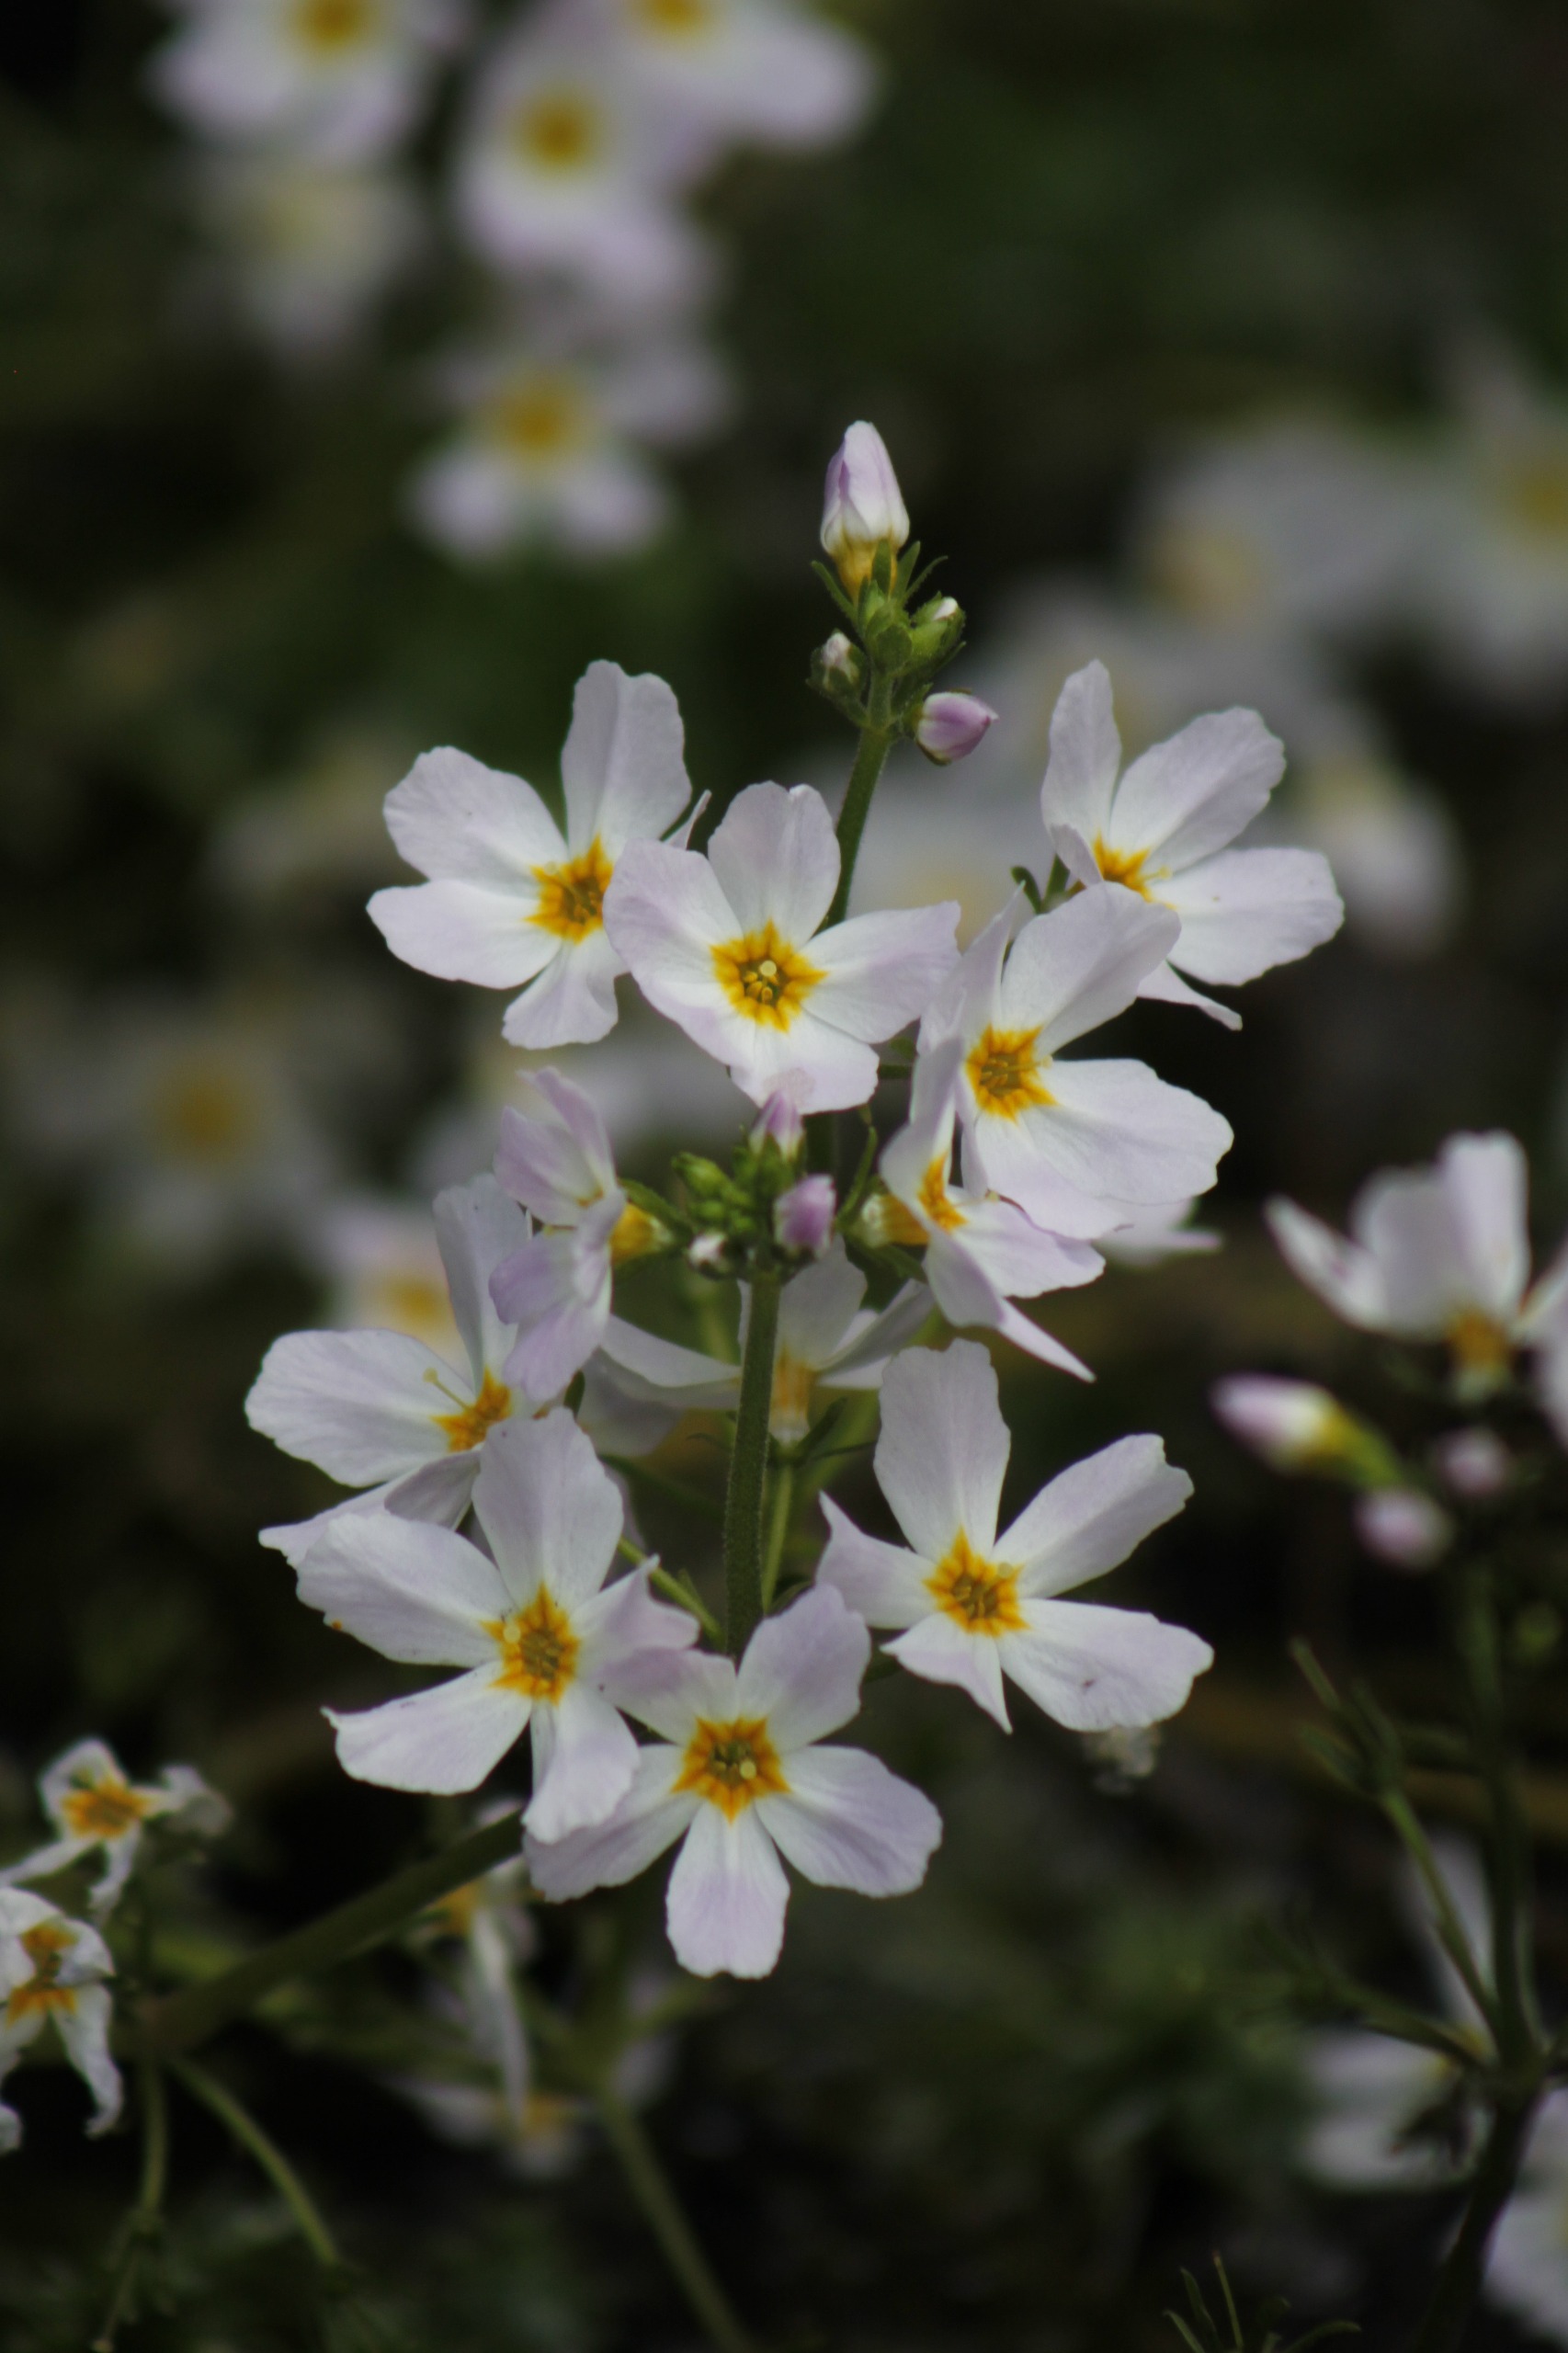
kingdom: Plantae
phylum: Tracheophyta
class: Magnoliopsida
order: Ericales
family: Primulaceae
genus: Hottonia
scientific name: Hottonia palustris
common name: Vandrøllike
